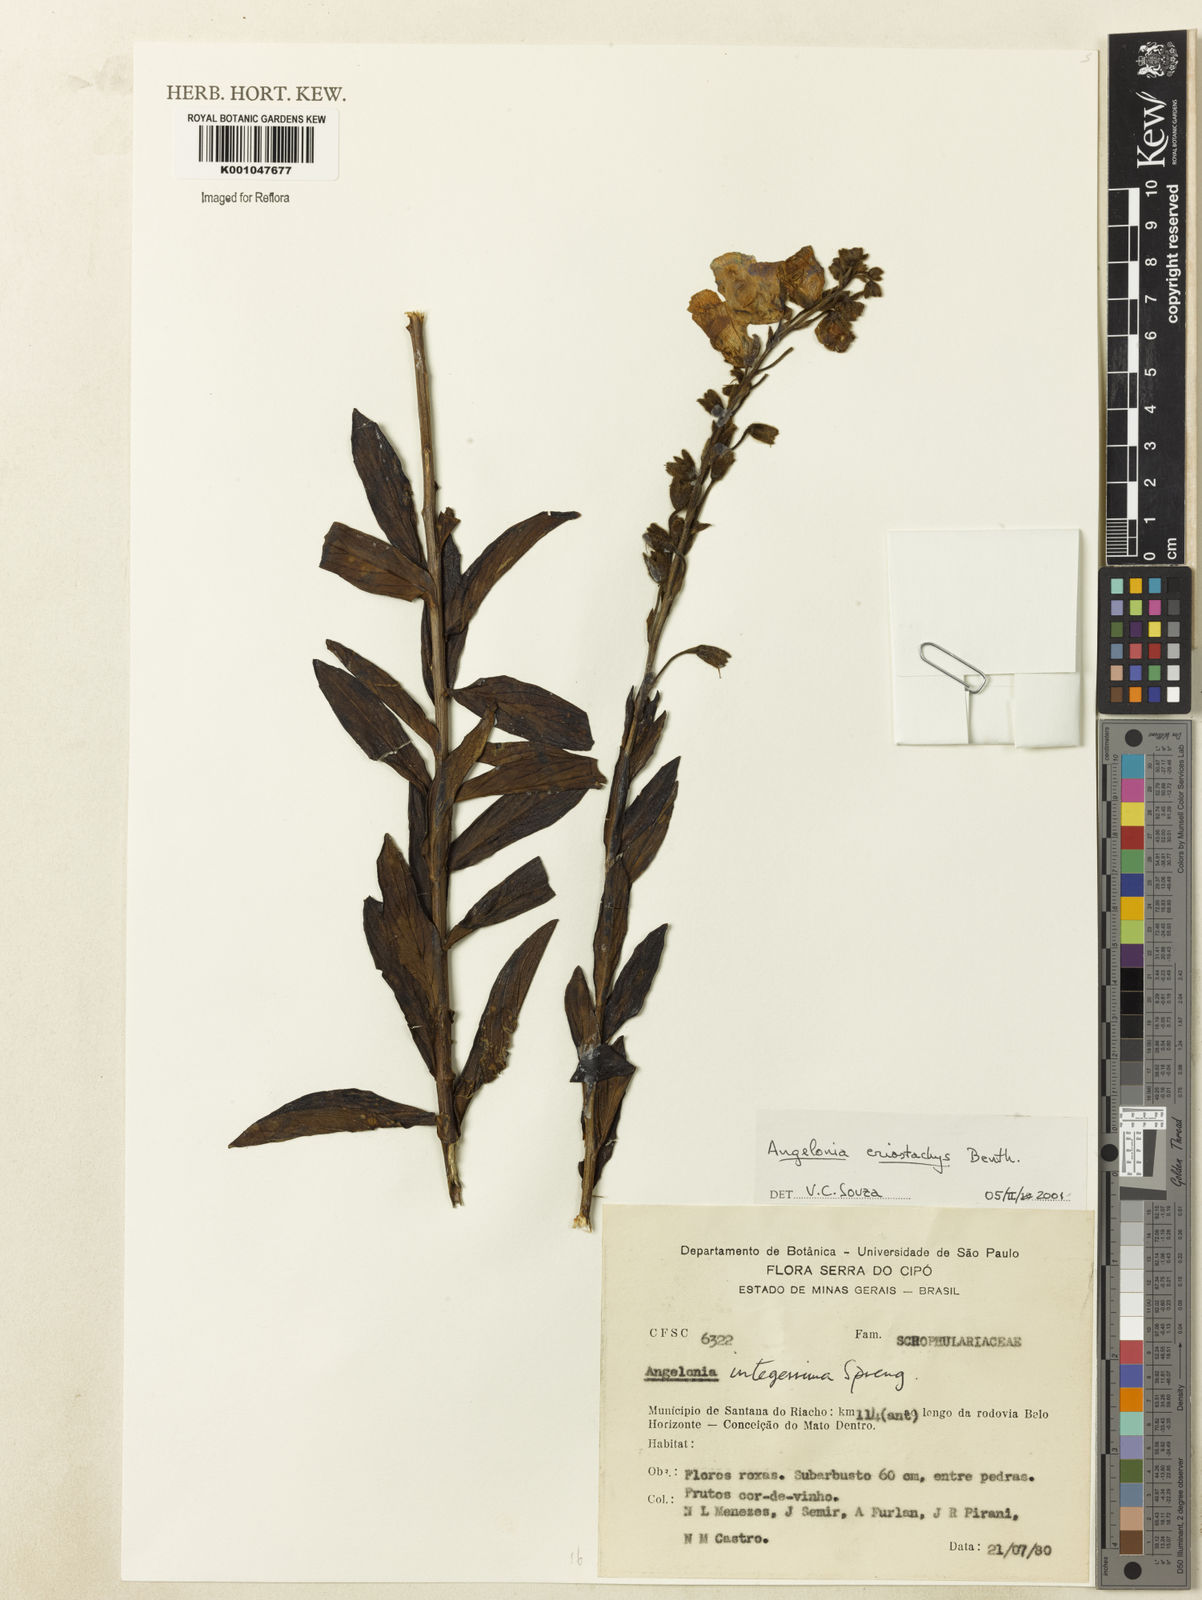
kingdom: Plantae
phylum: Tracheophyta
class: Magnoliopsida
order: Lamiales
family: Plantaginaceae
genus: Angelonia
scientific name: Angelonia eriostachys
